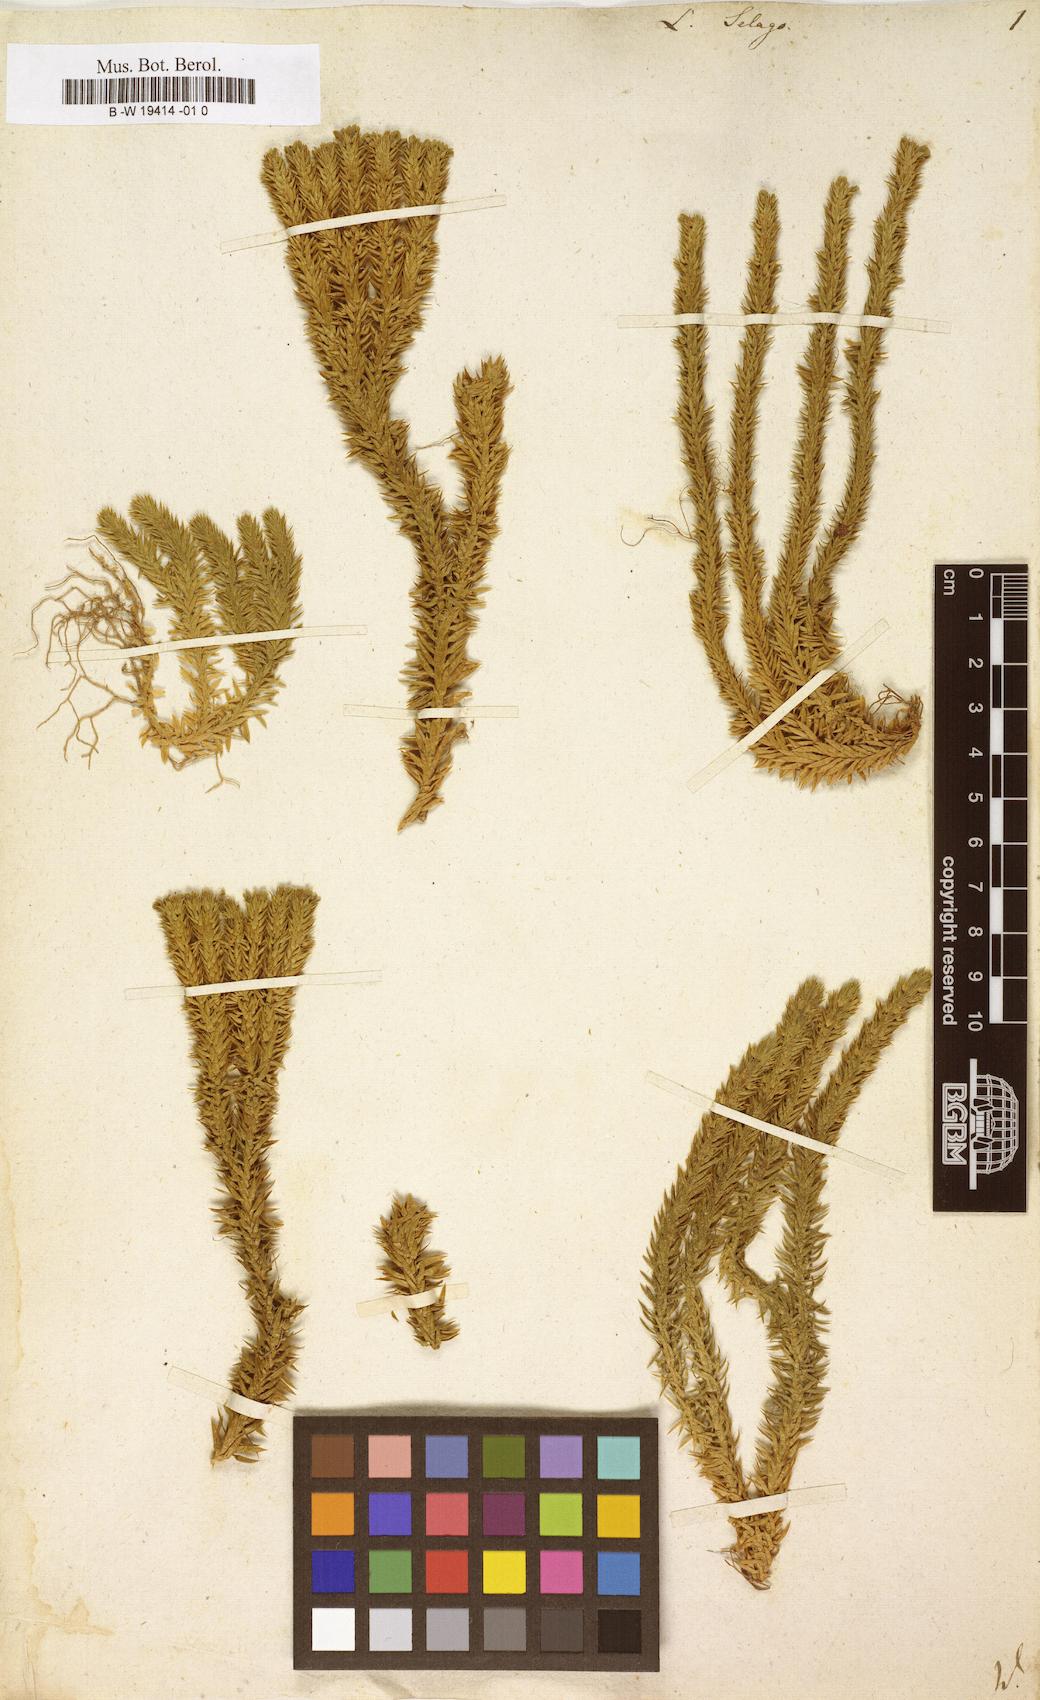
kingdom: Plantae
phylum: Tracheophyta
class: Lycopodiopsida
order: Lycopodiales
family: Lycopodiaceae
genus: Huperzia
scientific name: Huperzia selago
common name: Northern firmoss
